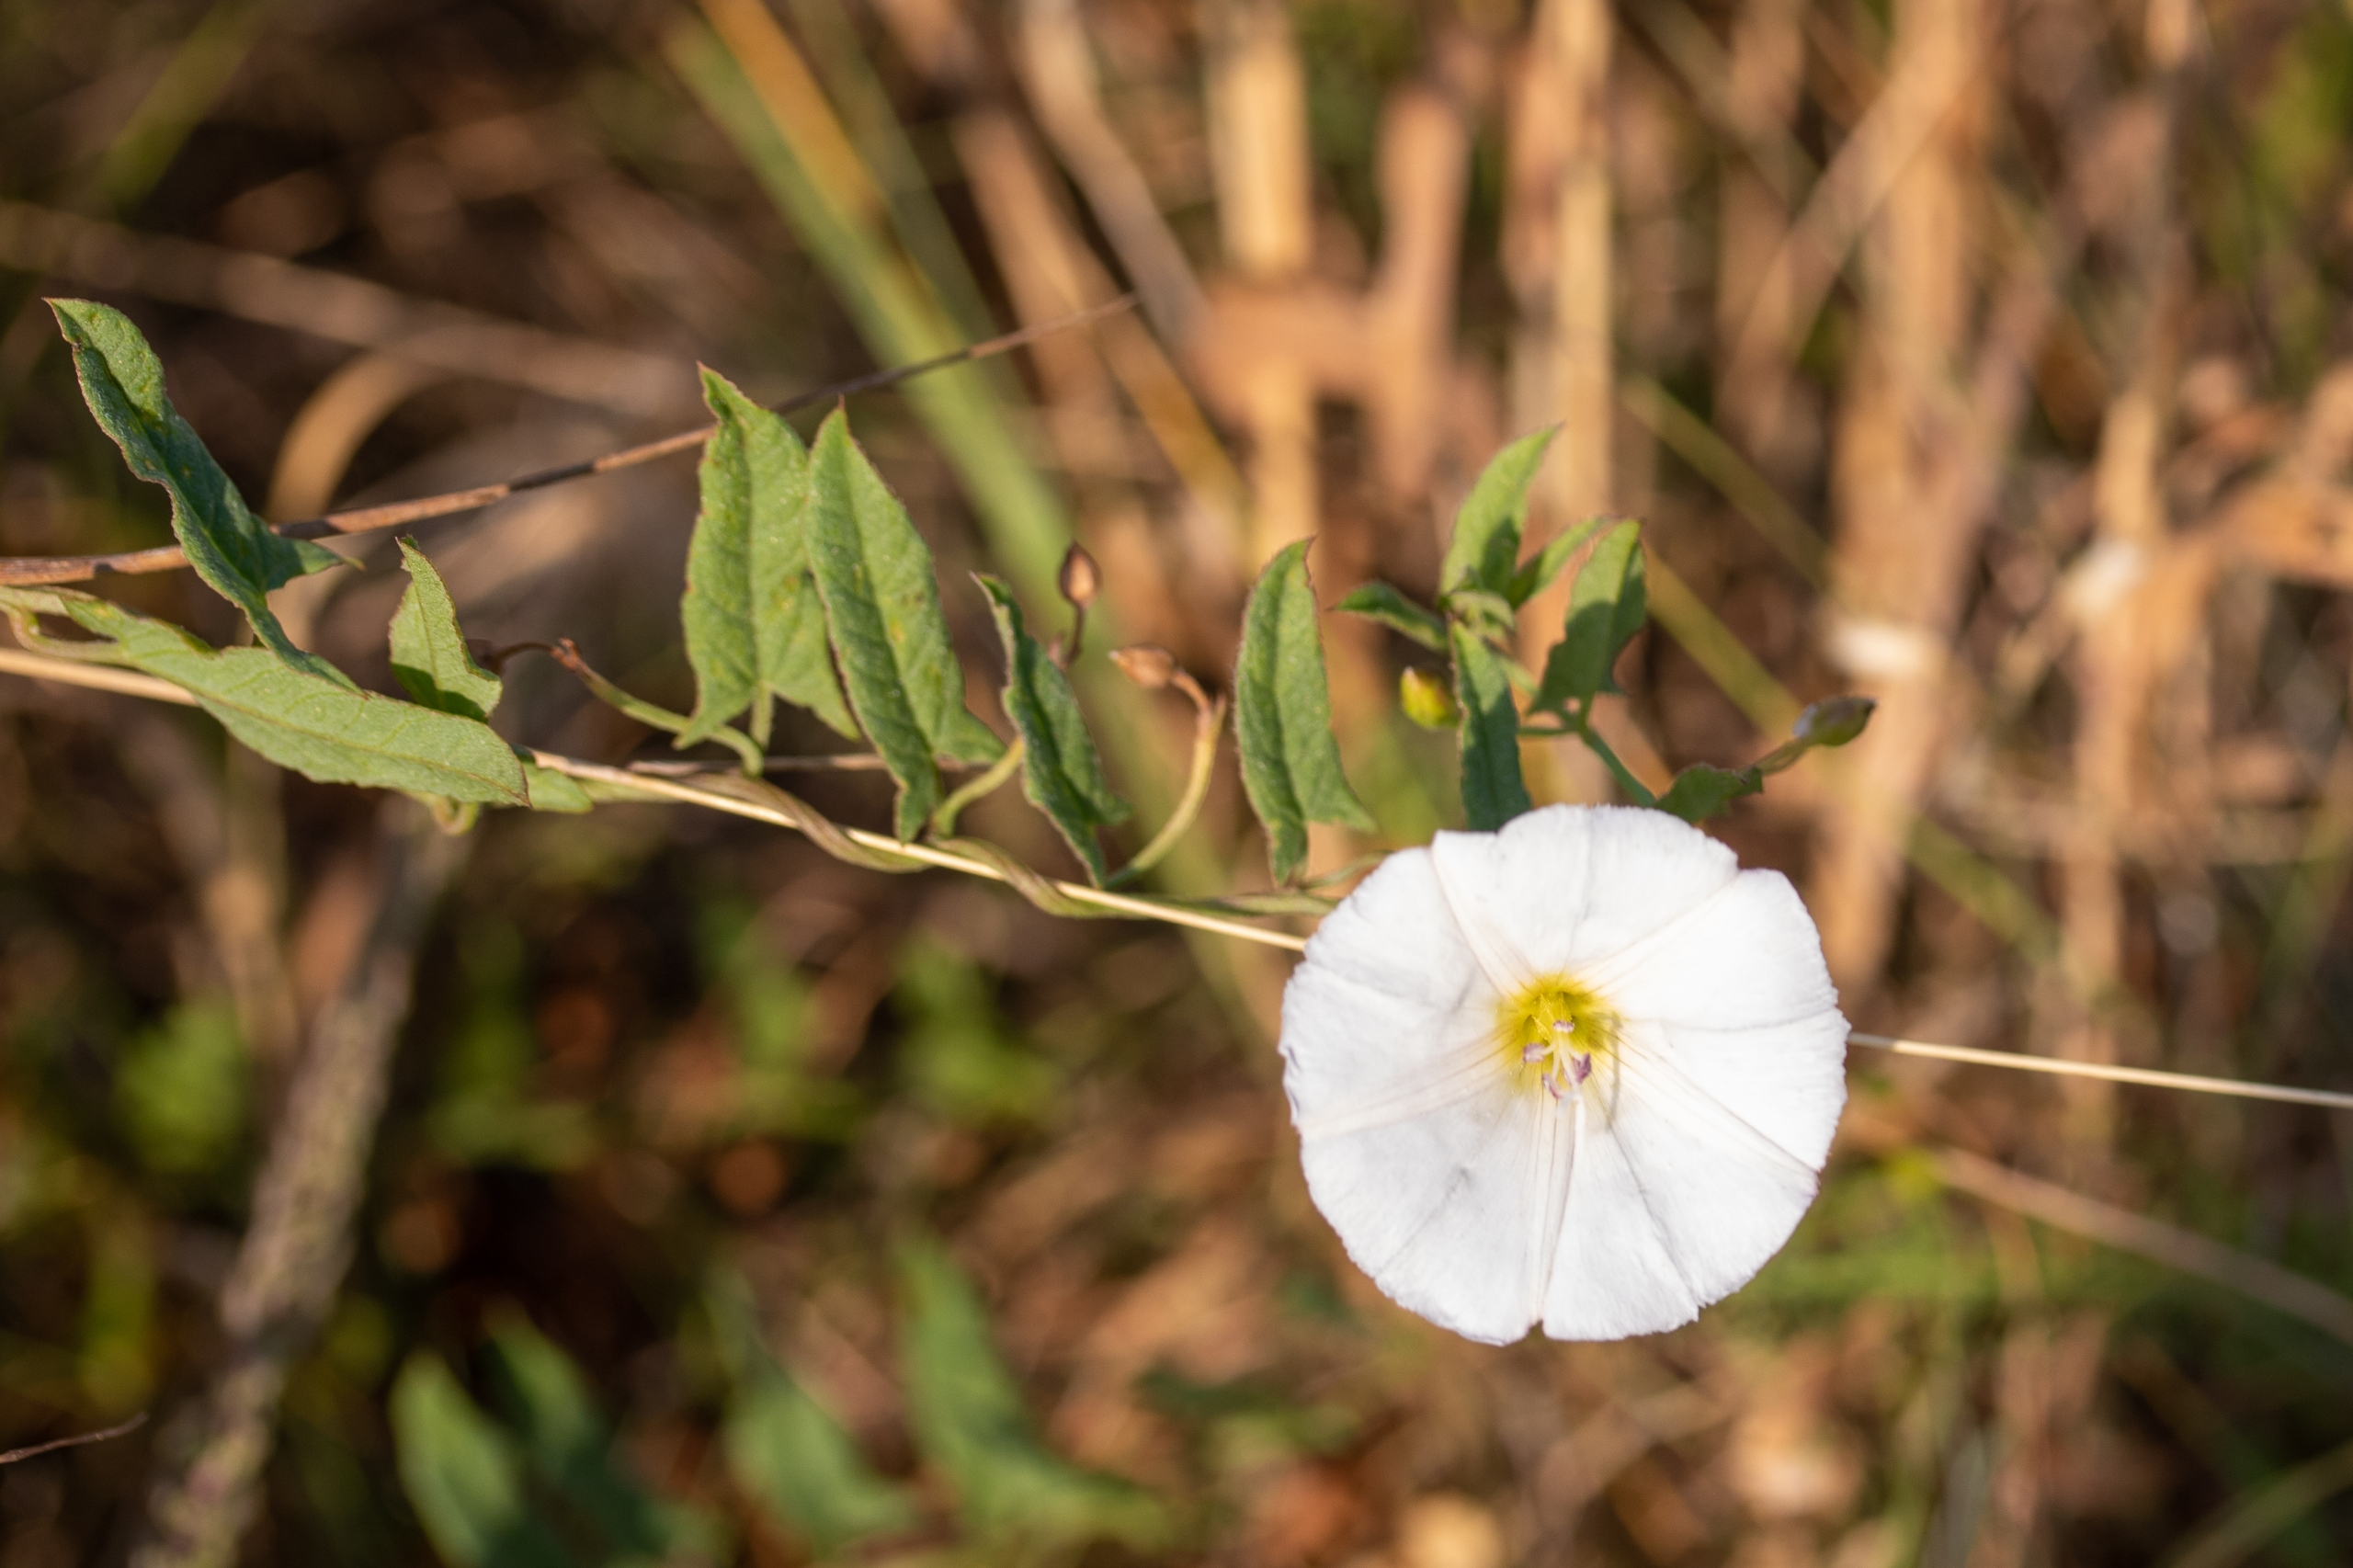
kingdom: Plantae
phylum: Tracheophyta
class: Magnoliopsida
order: Solanales
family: Convolvulaceae
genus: Convolvulus
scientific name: Convolvulus arvensis
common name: Ager-snerle
